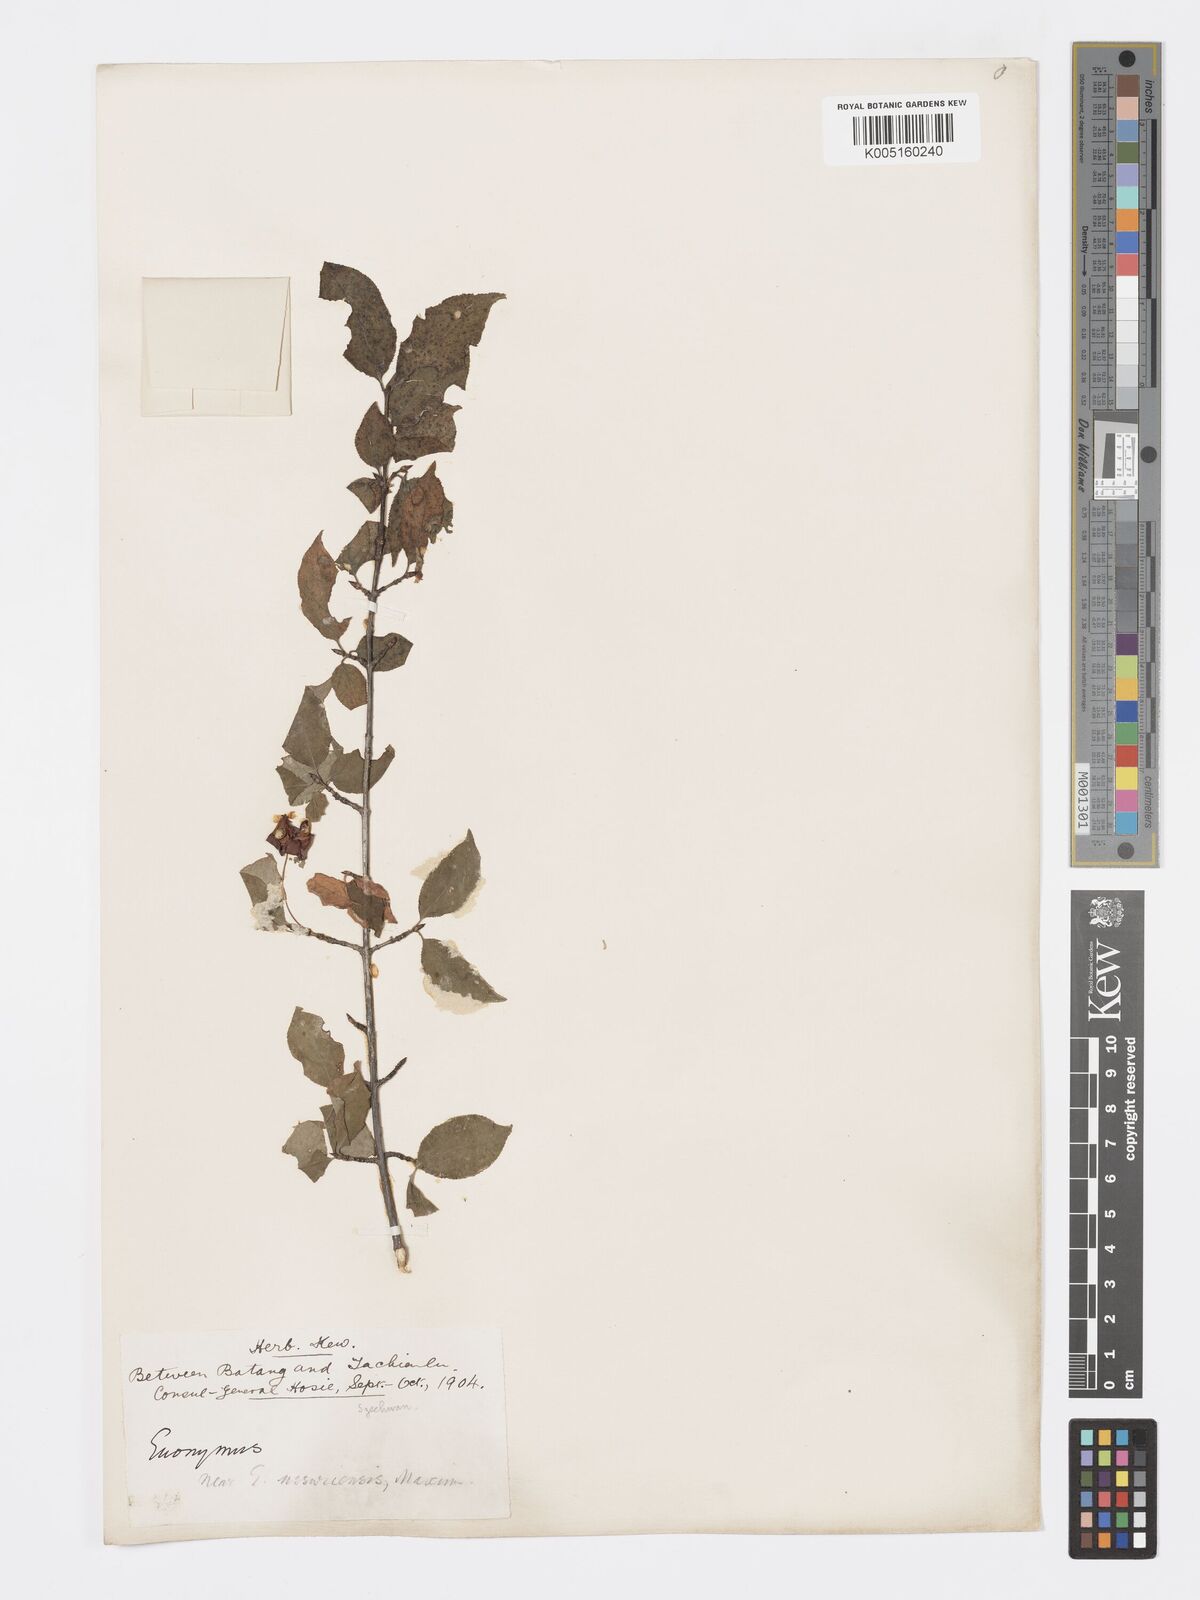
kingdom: Plantae
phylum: Tracheophyta
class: Magnoliopsida
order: Celastrales
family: Celastraceae
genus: Euonymus
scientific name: Euonymus giraldii
